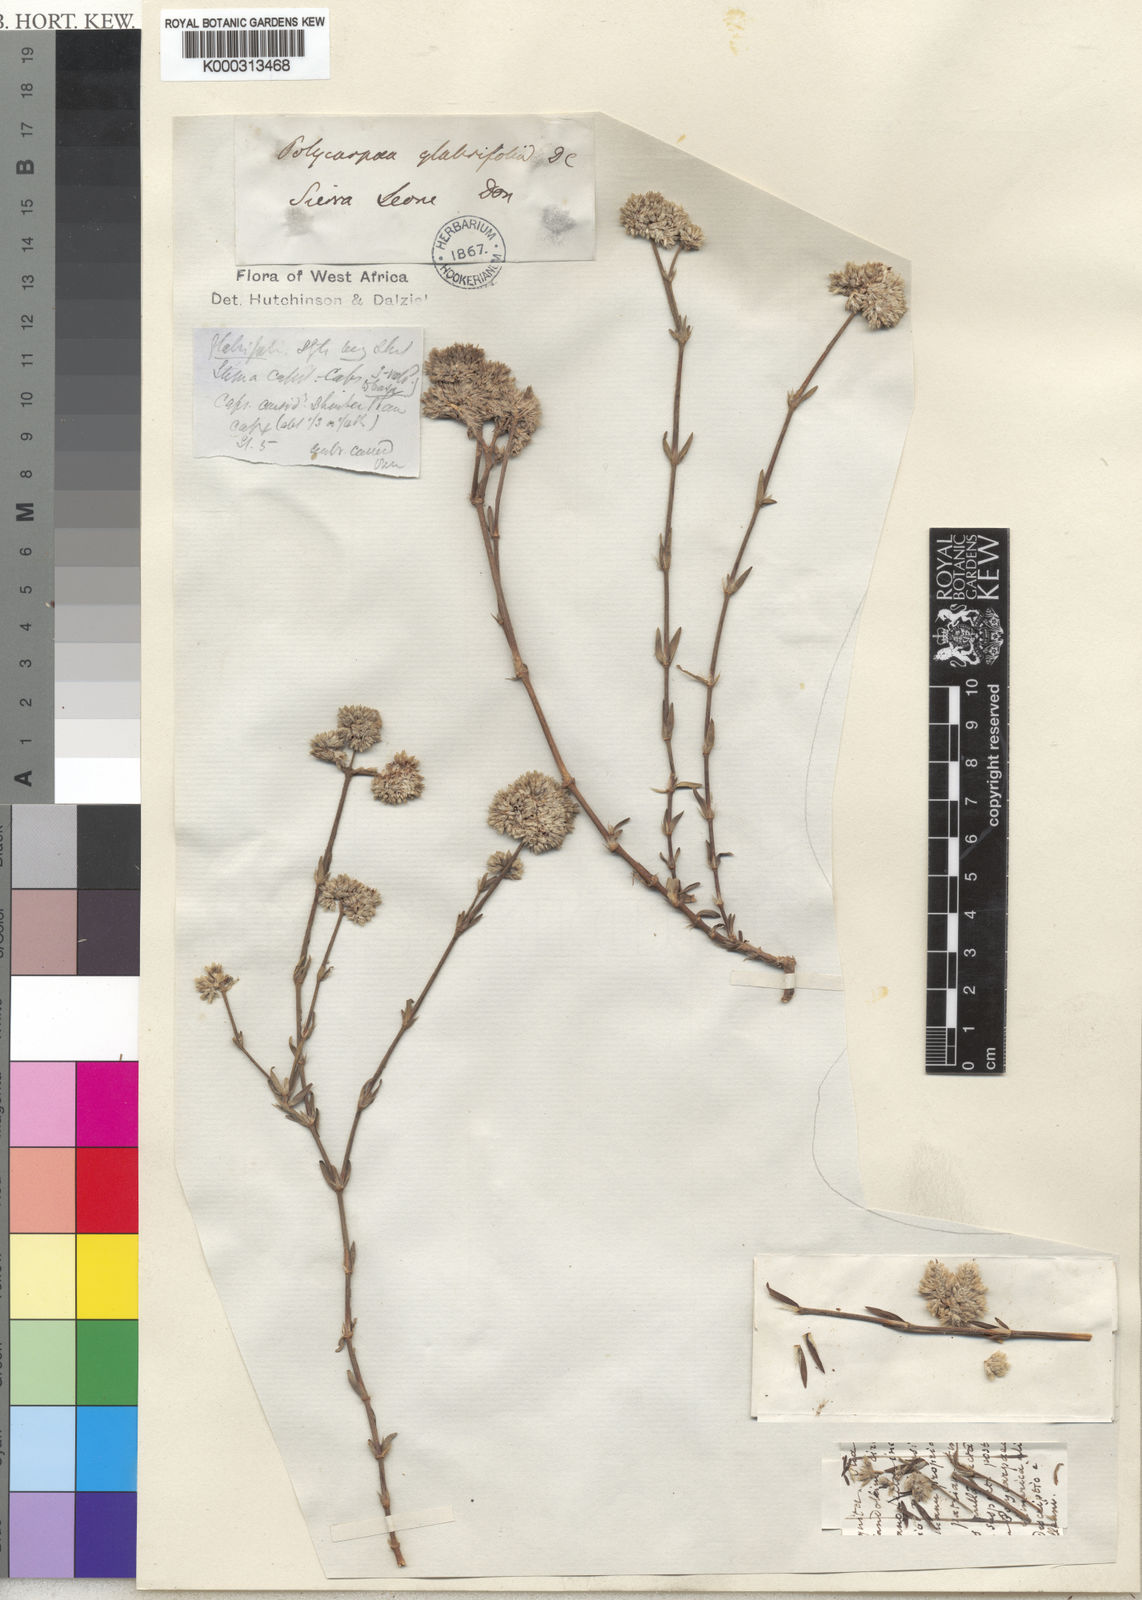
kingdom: Plantae
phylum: Tracheophyta
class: Magnoliopsida
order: Caryophyllales
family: Caryophyllaceae
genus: Polycarpaea
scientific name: Polycarpaea corymbosa
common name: Oldman's cap
